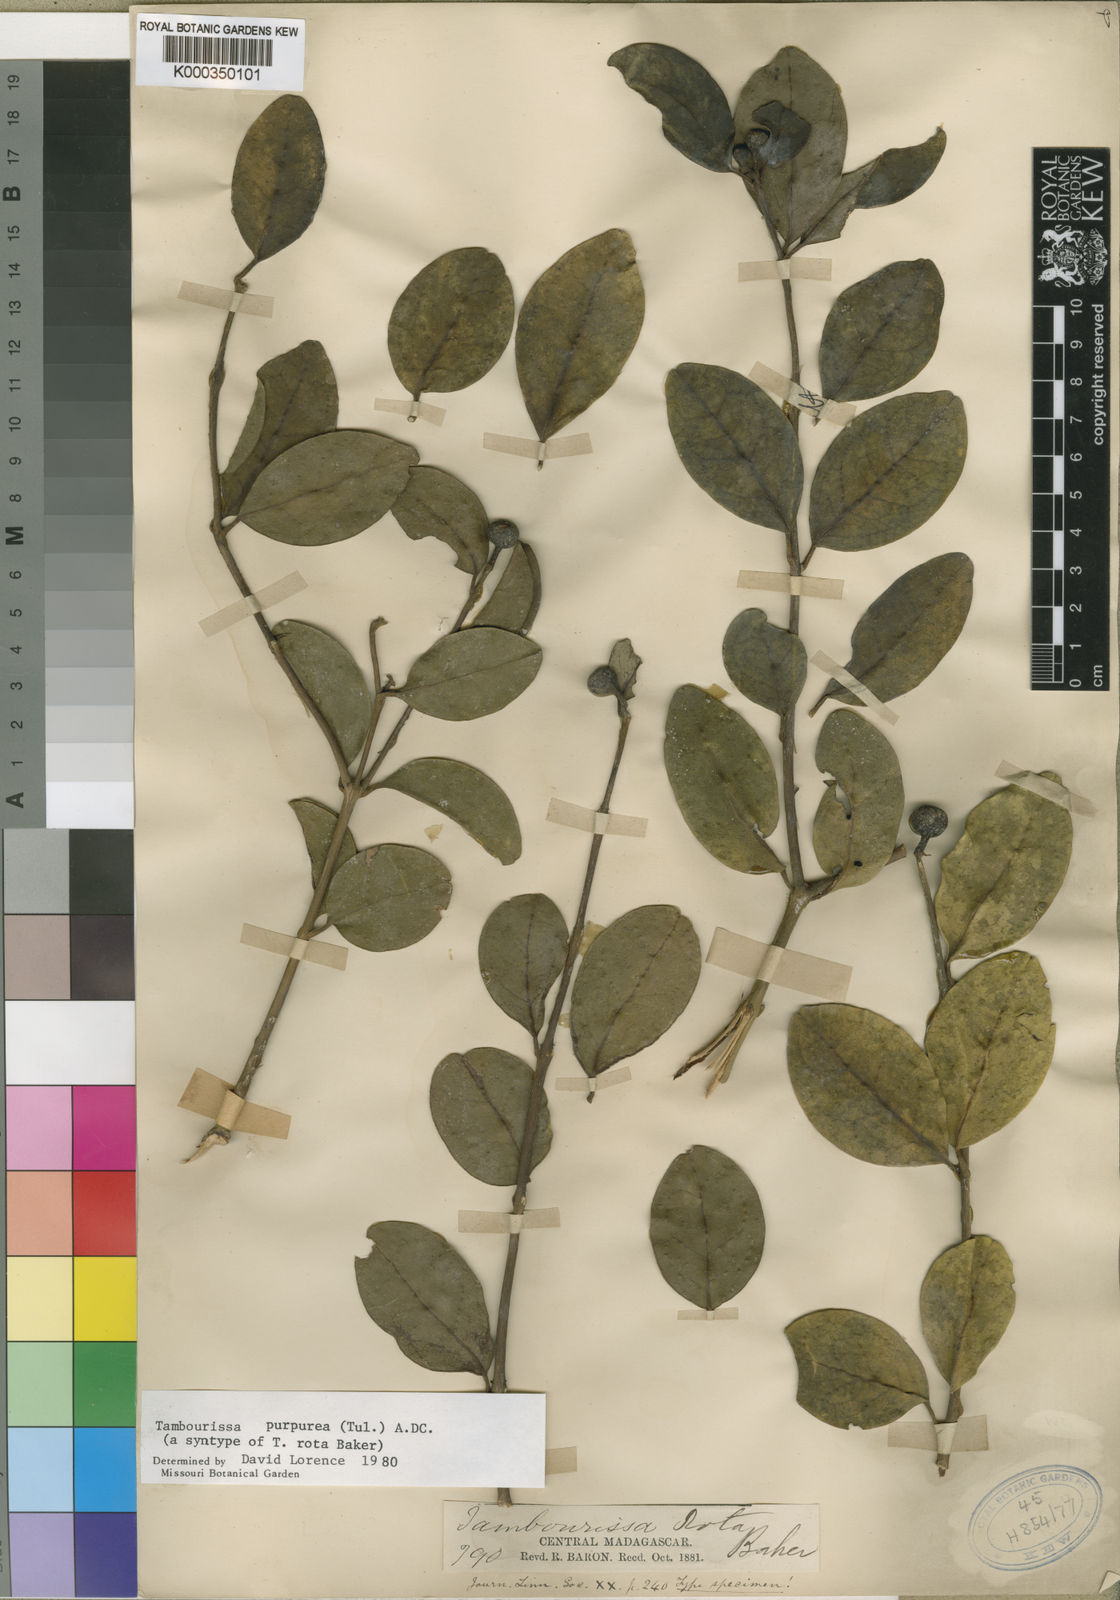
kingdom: Plantae
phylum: Tracheophyta
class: Magnoliopsida
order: Laurales
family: Monimiaceae
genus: Tambourissa
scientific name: Tambourissa purpurea
